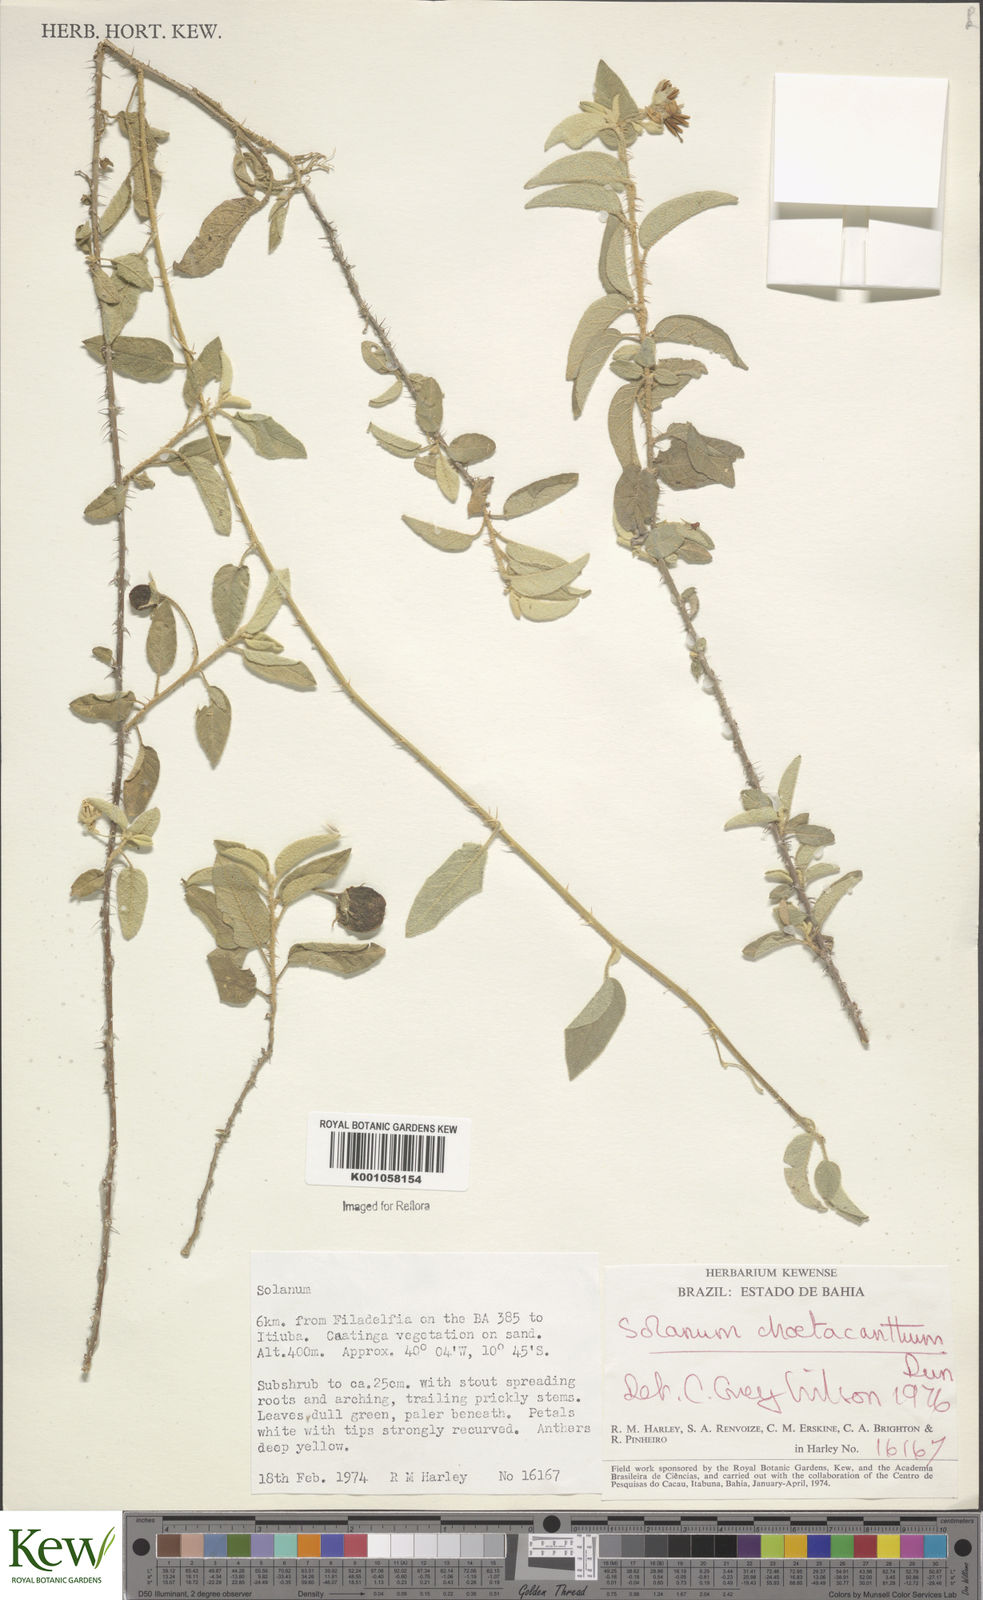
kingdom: Plantae
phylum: Tracheophyta
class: Magnoliopsida
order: Solanales
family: Solanaceae
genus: Solanum
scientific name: Solanum gardneri
